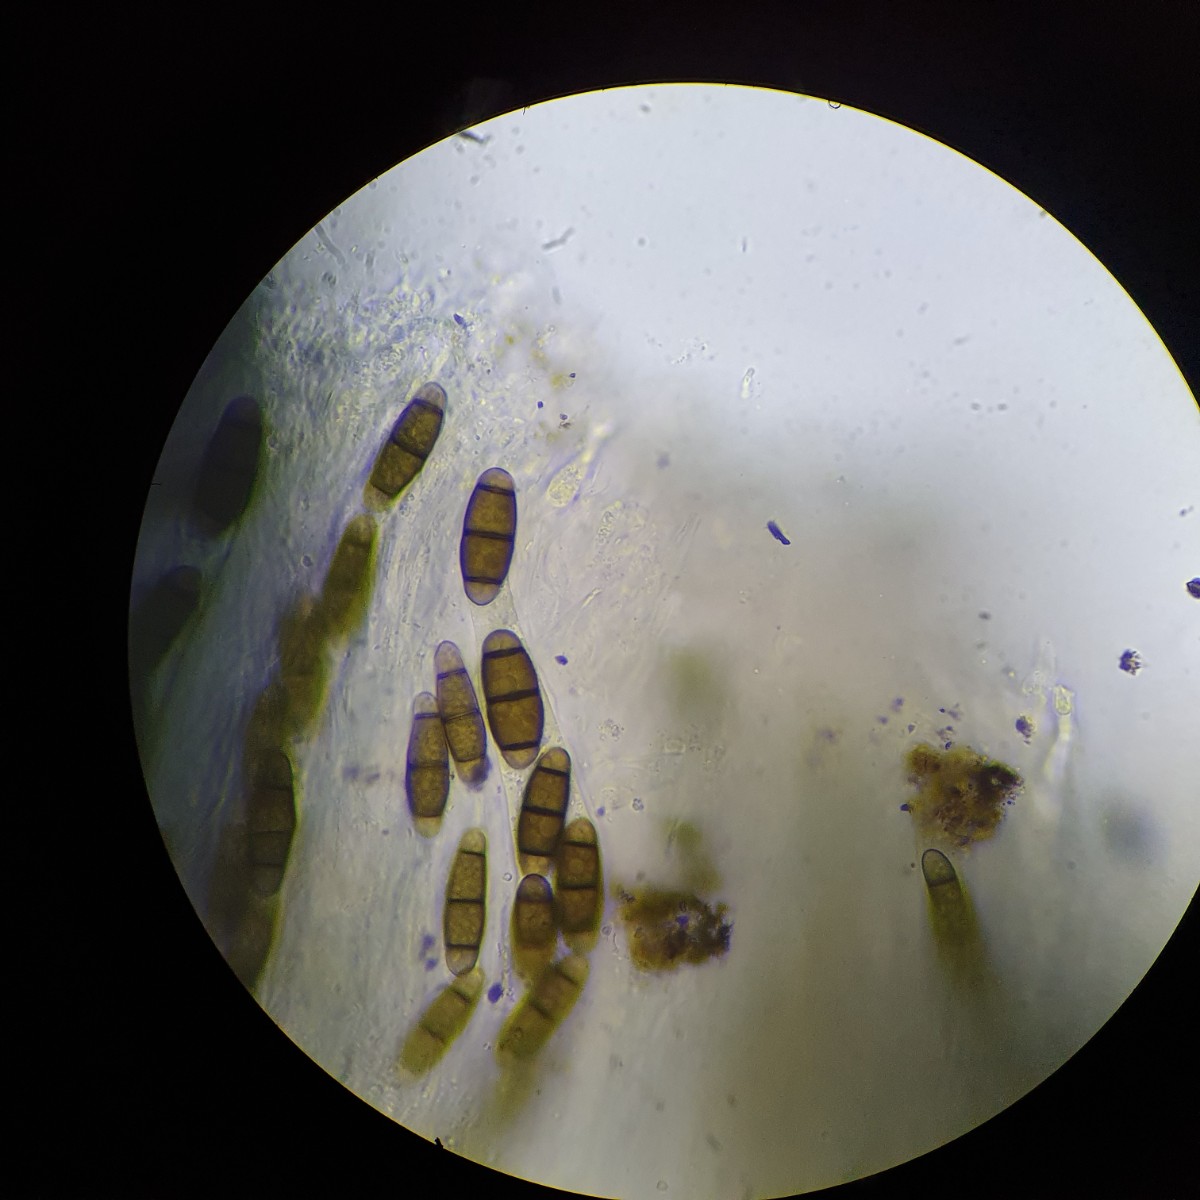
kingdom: Fungi
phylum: Ascomycota
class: Dothideomycetes
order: Hysteriales
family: Hysteriaceae
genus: Hysterium
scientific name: Hysterium pulicare
